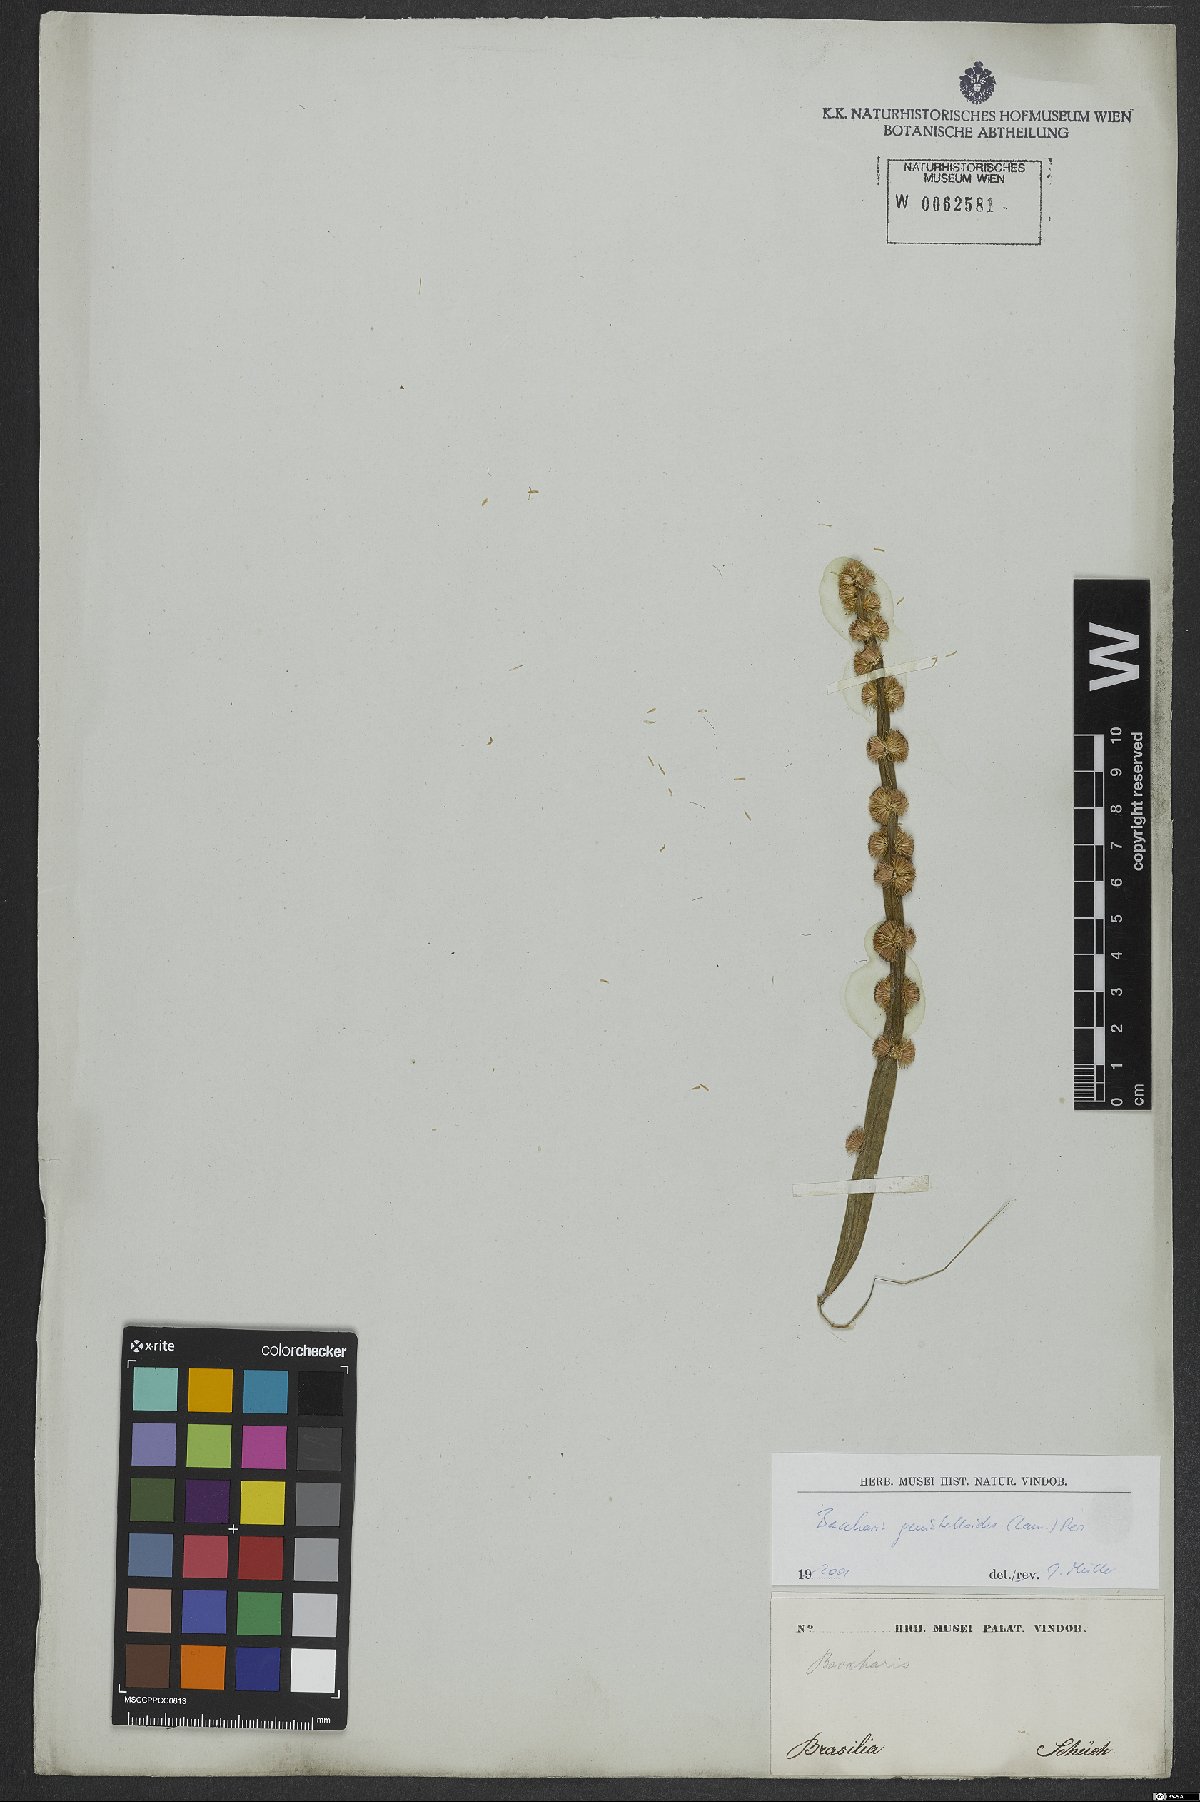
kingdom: Plantae
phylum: Tracheophyta
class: Magnoliopsida
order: Asterales
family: Asteraceae
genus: Baccharis
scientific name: Baccharis genistelloides
